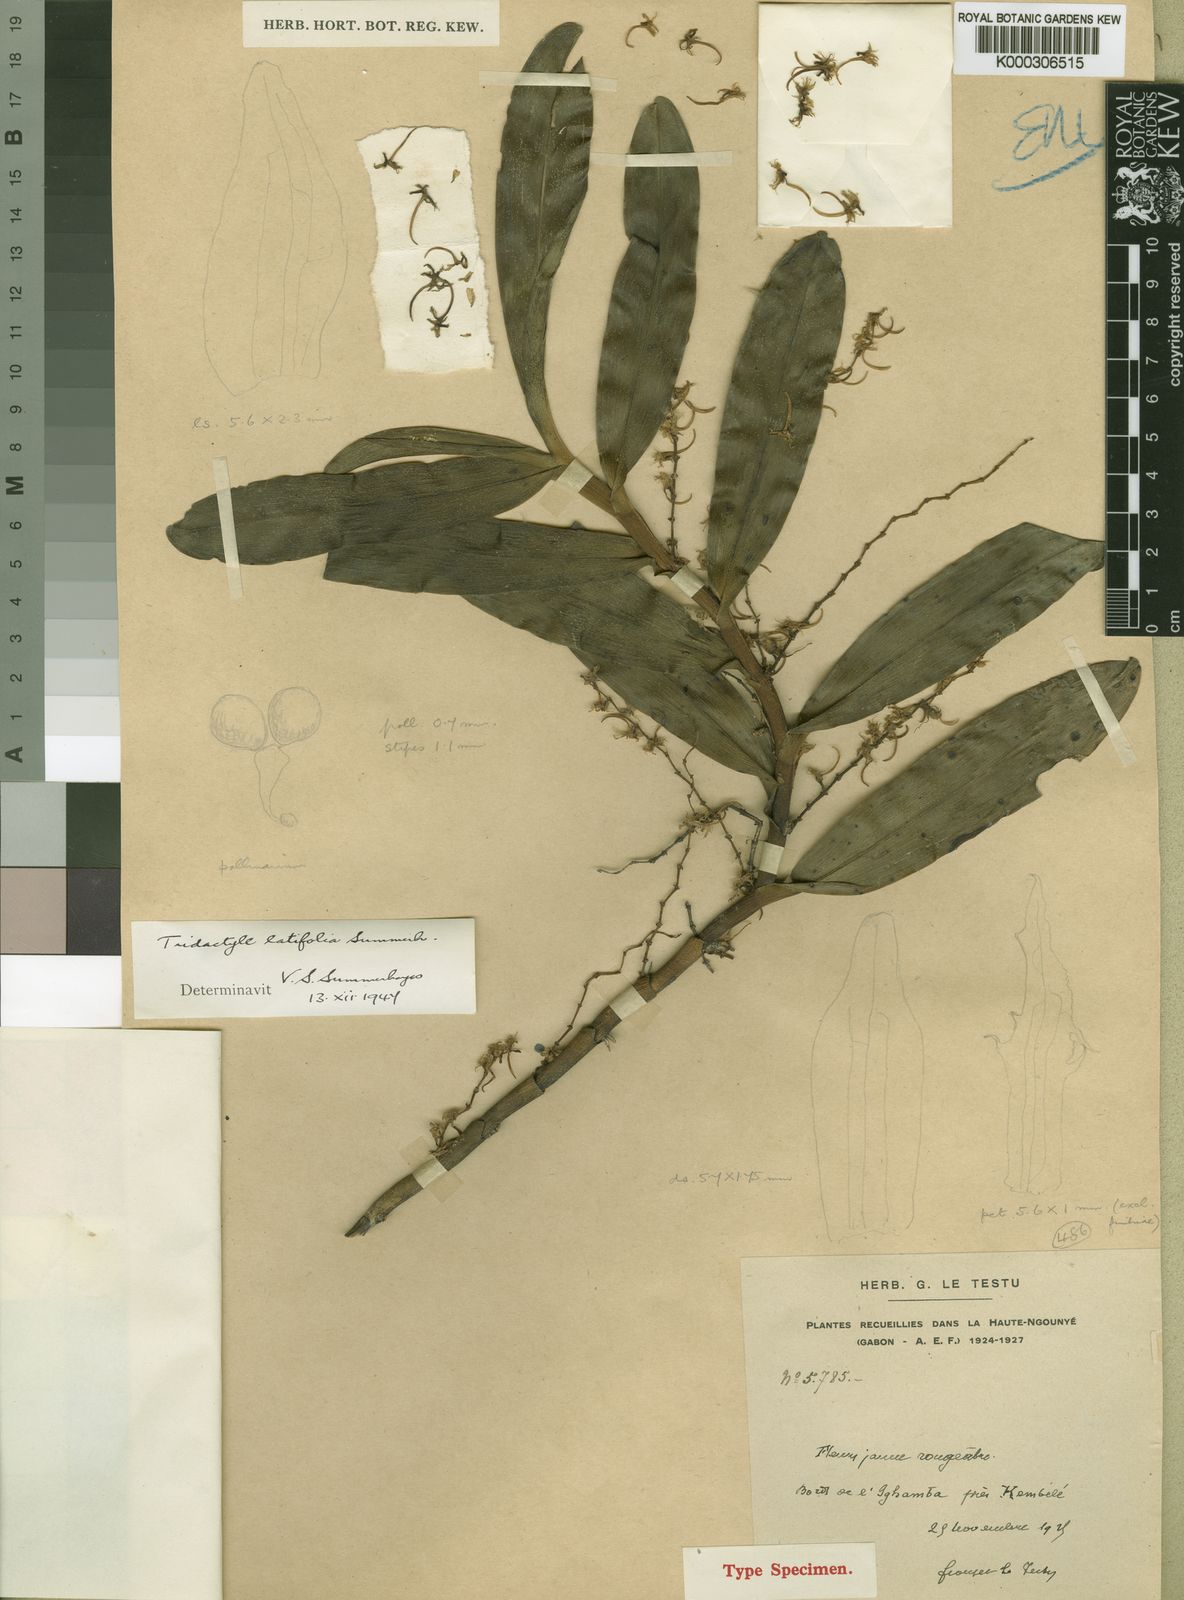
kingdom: Plantae
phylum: Tracheophyta
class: Liliopsida
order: Asparagales
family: Orchidaceae
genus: Tridactyle
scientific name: Tridactyle latifolia
